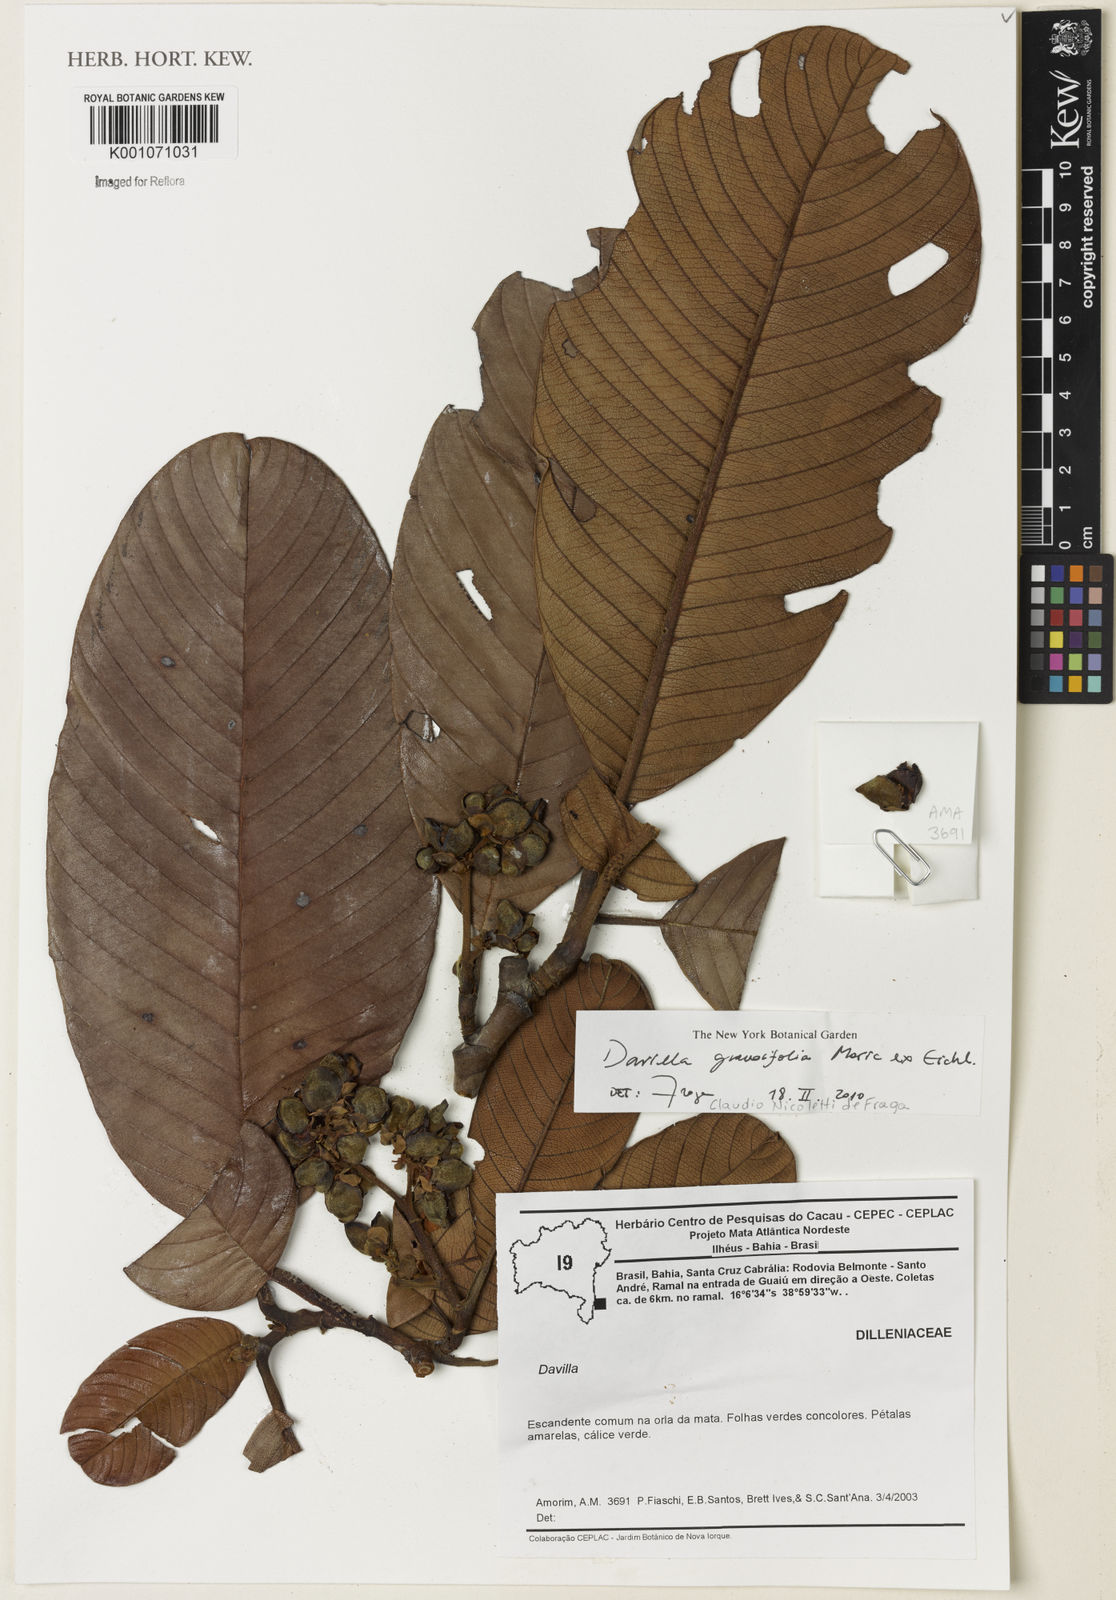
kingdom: Plantae
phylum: Tracheophyta
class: Magnoliopsida
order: Dilleniales
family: Dilleniaceae
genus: Davilla
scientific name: Davilla grandiflora
